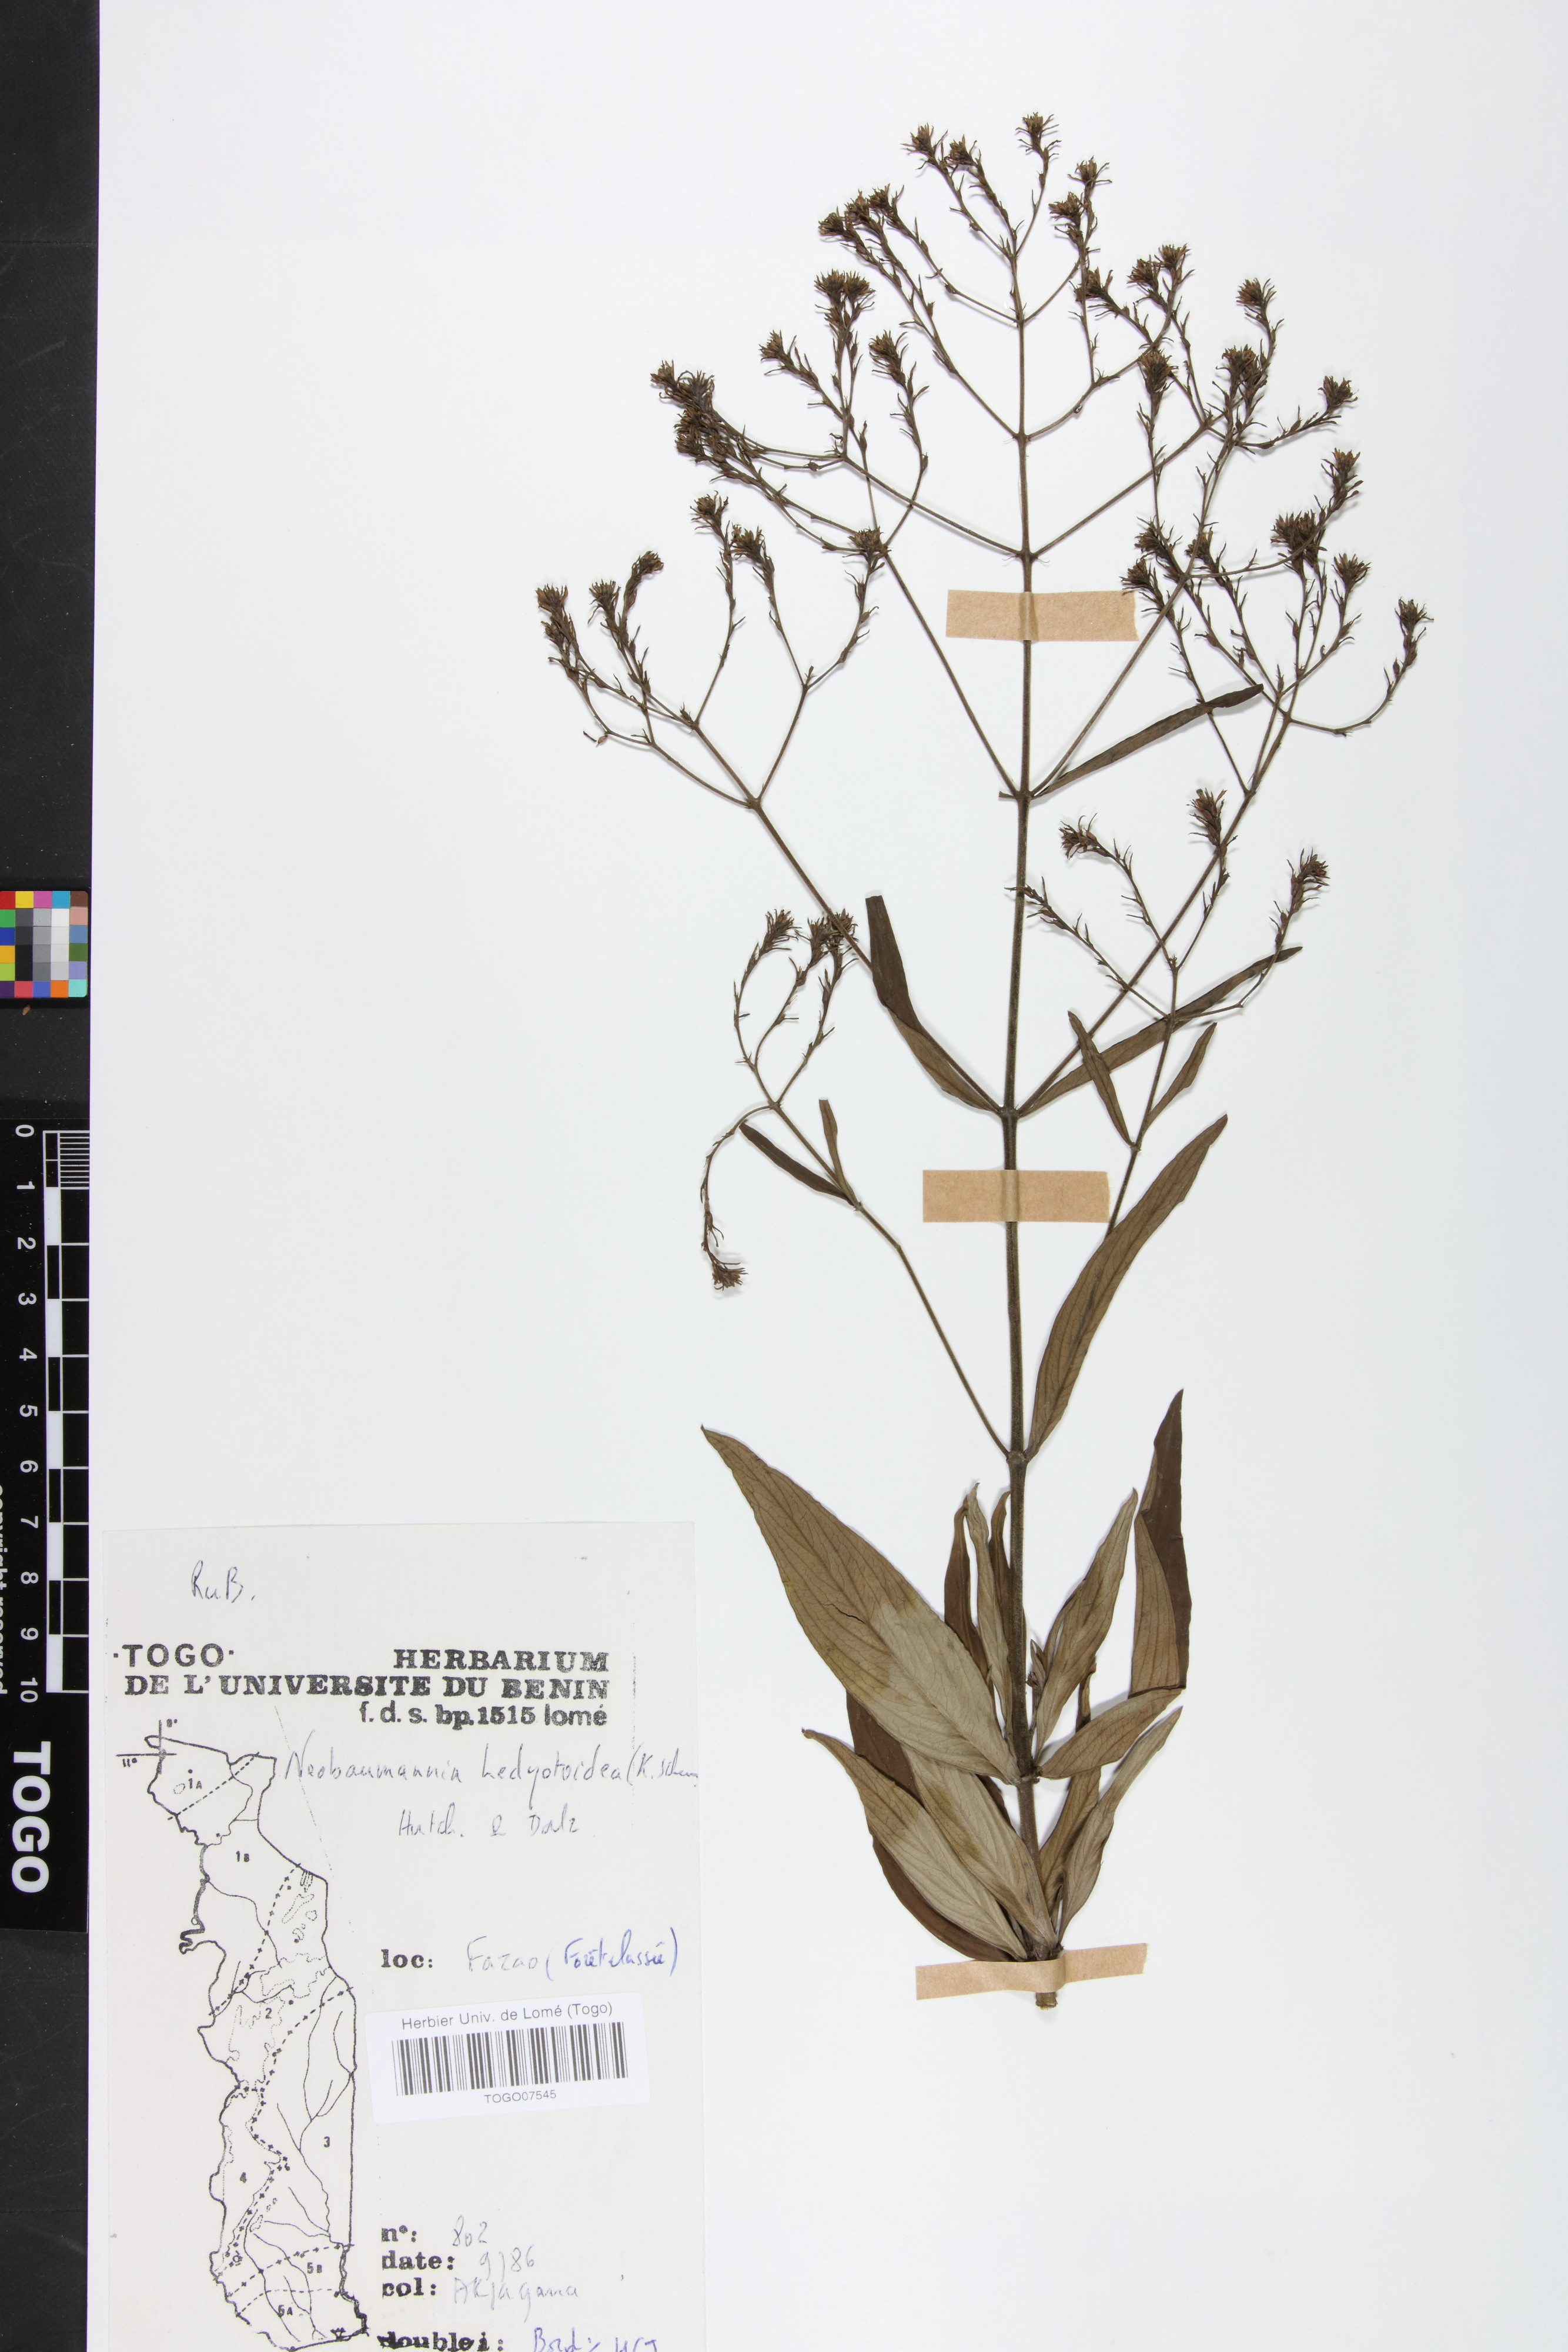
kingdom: Plantae
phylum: Tracheophyta
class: Magnoliopsida
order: Gentianales
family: Rubiaceae
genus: Knoxia
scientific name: Knoxia hedyotoidea
